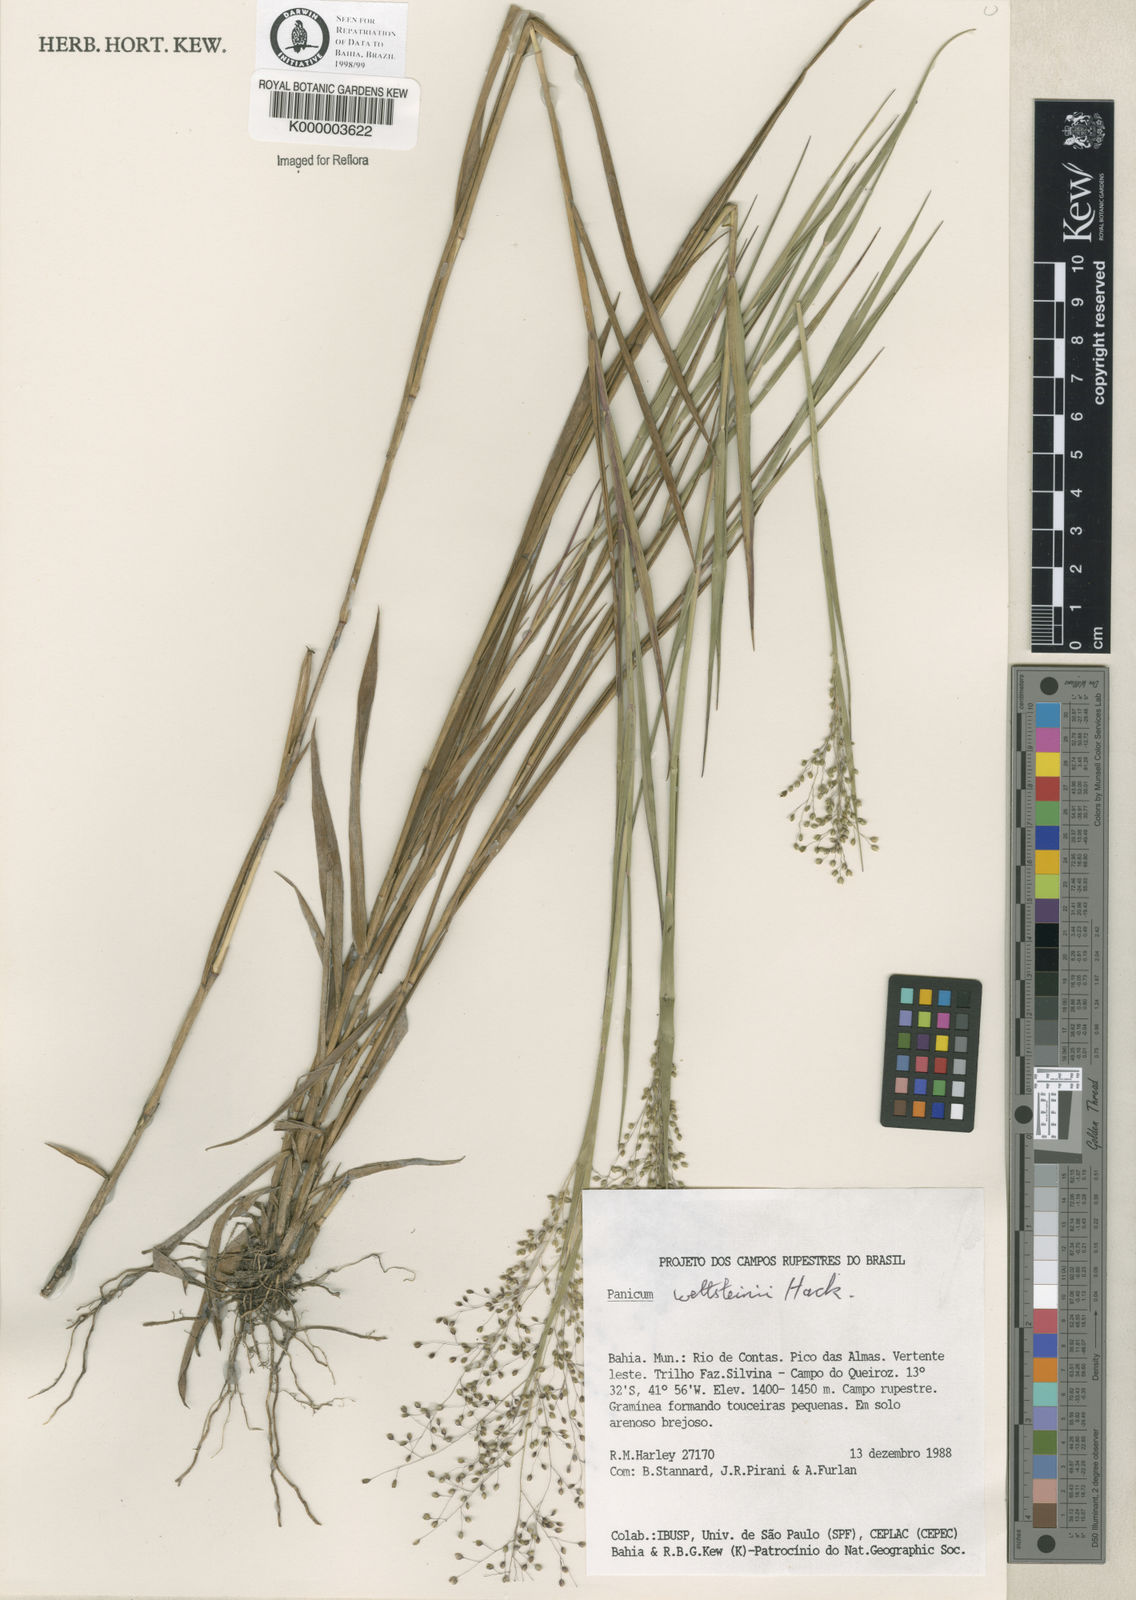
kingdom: Plantae
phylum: Tracheophyta
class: Liliopsida
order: Poales
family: Poaceae
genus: Trichanthecium
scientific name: Trichanthecium wettsteinii
